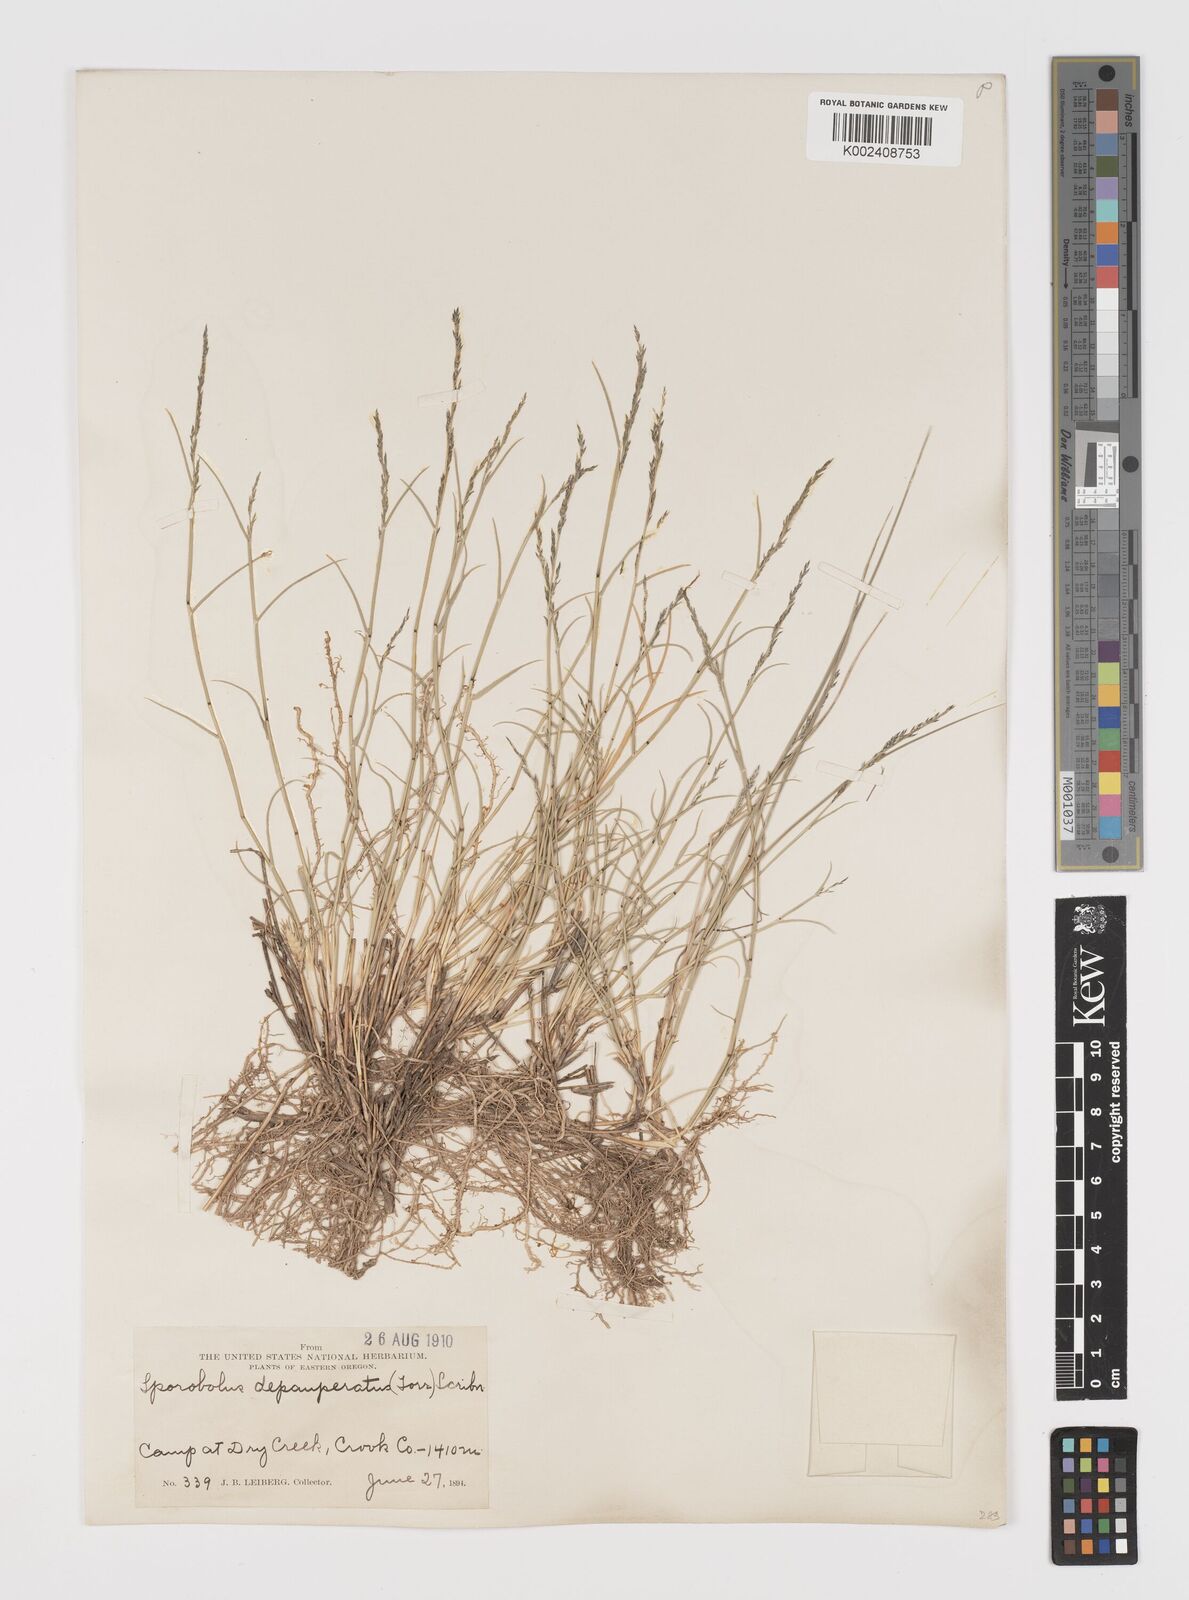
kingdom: Plantae
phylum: Tracheophyta
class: Liliopsida
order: Poales
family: Poaceae
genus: Muhlenbergia
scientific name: Muhlenbergia richardsonis
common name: Mat muhly
